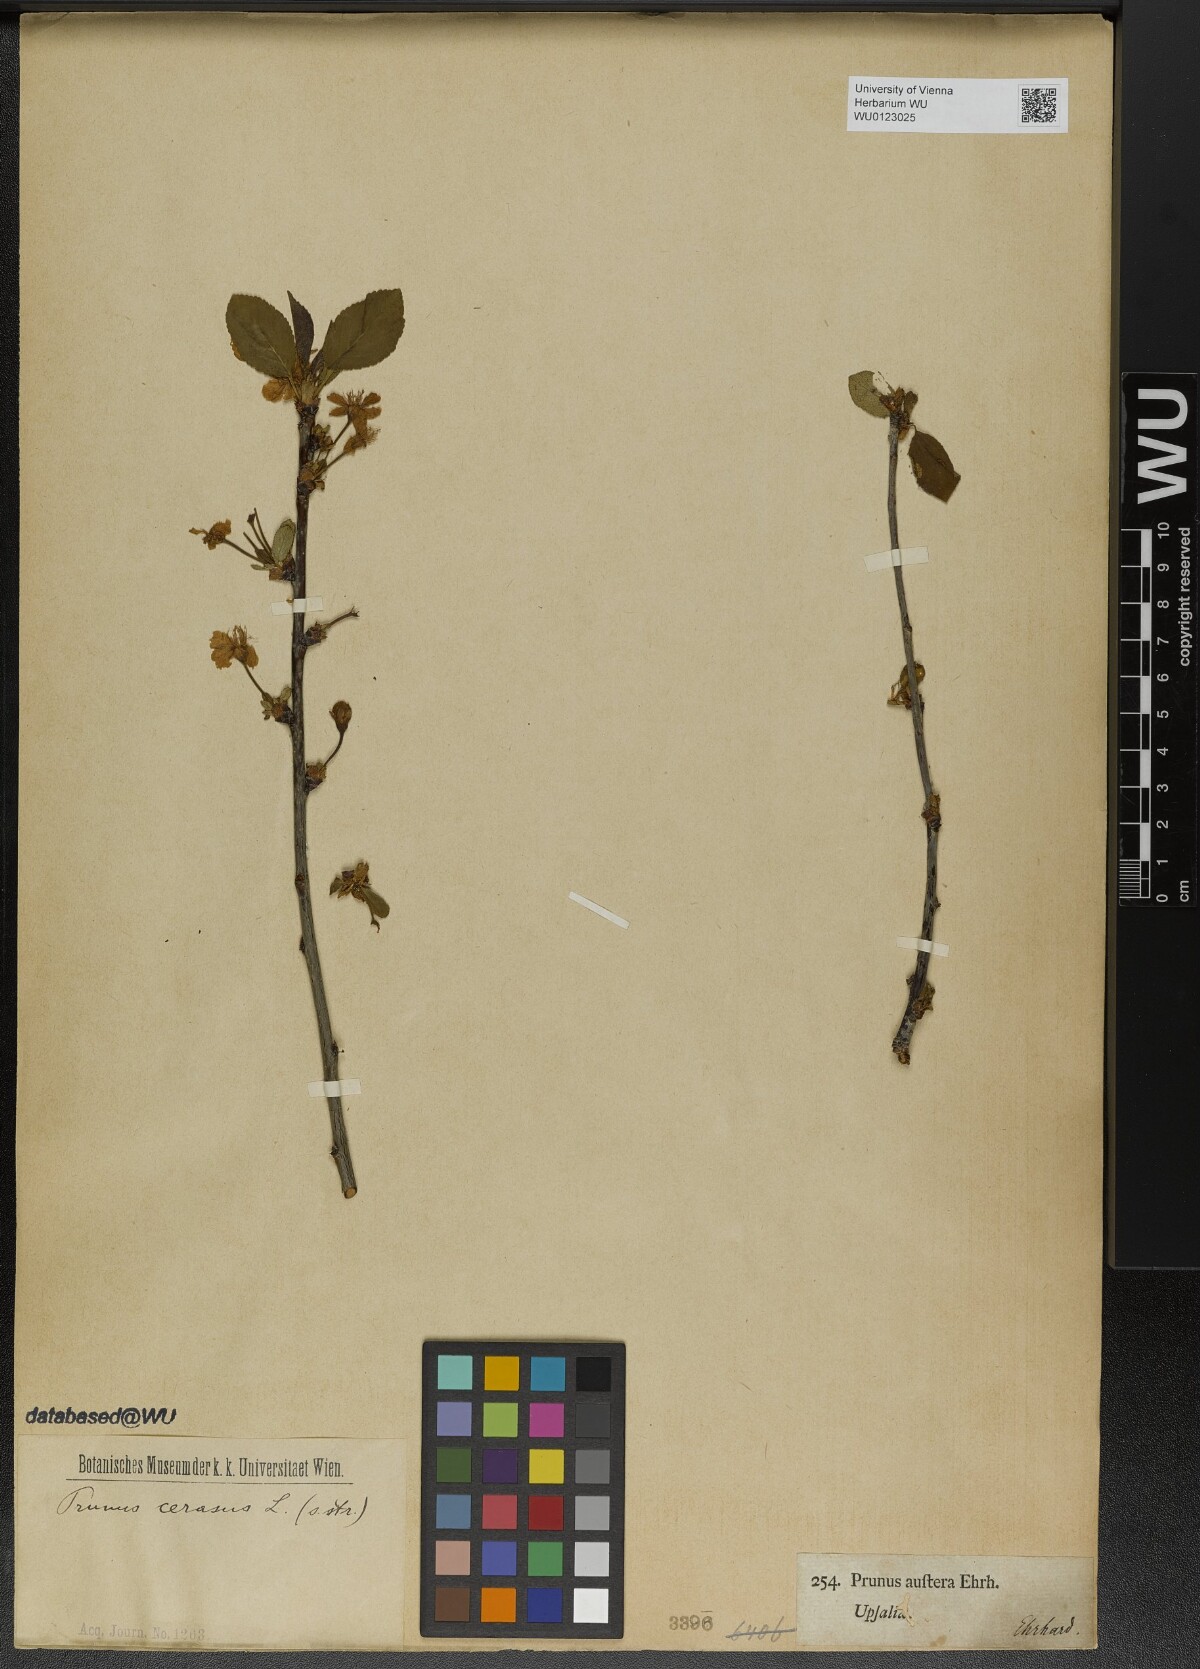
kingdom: Plantae
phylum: Tracheophyta
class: Magnoliopsida
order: Rosales
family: Rosaceae
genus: Prunus
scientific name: Prunus cerasus
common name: Morello cherry
